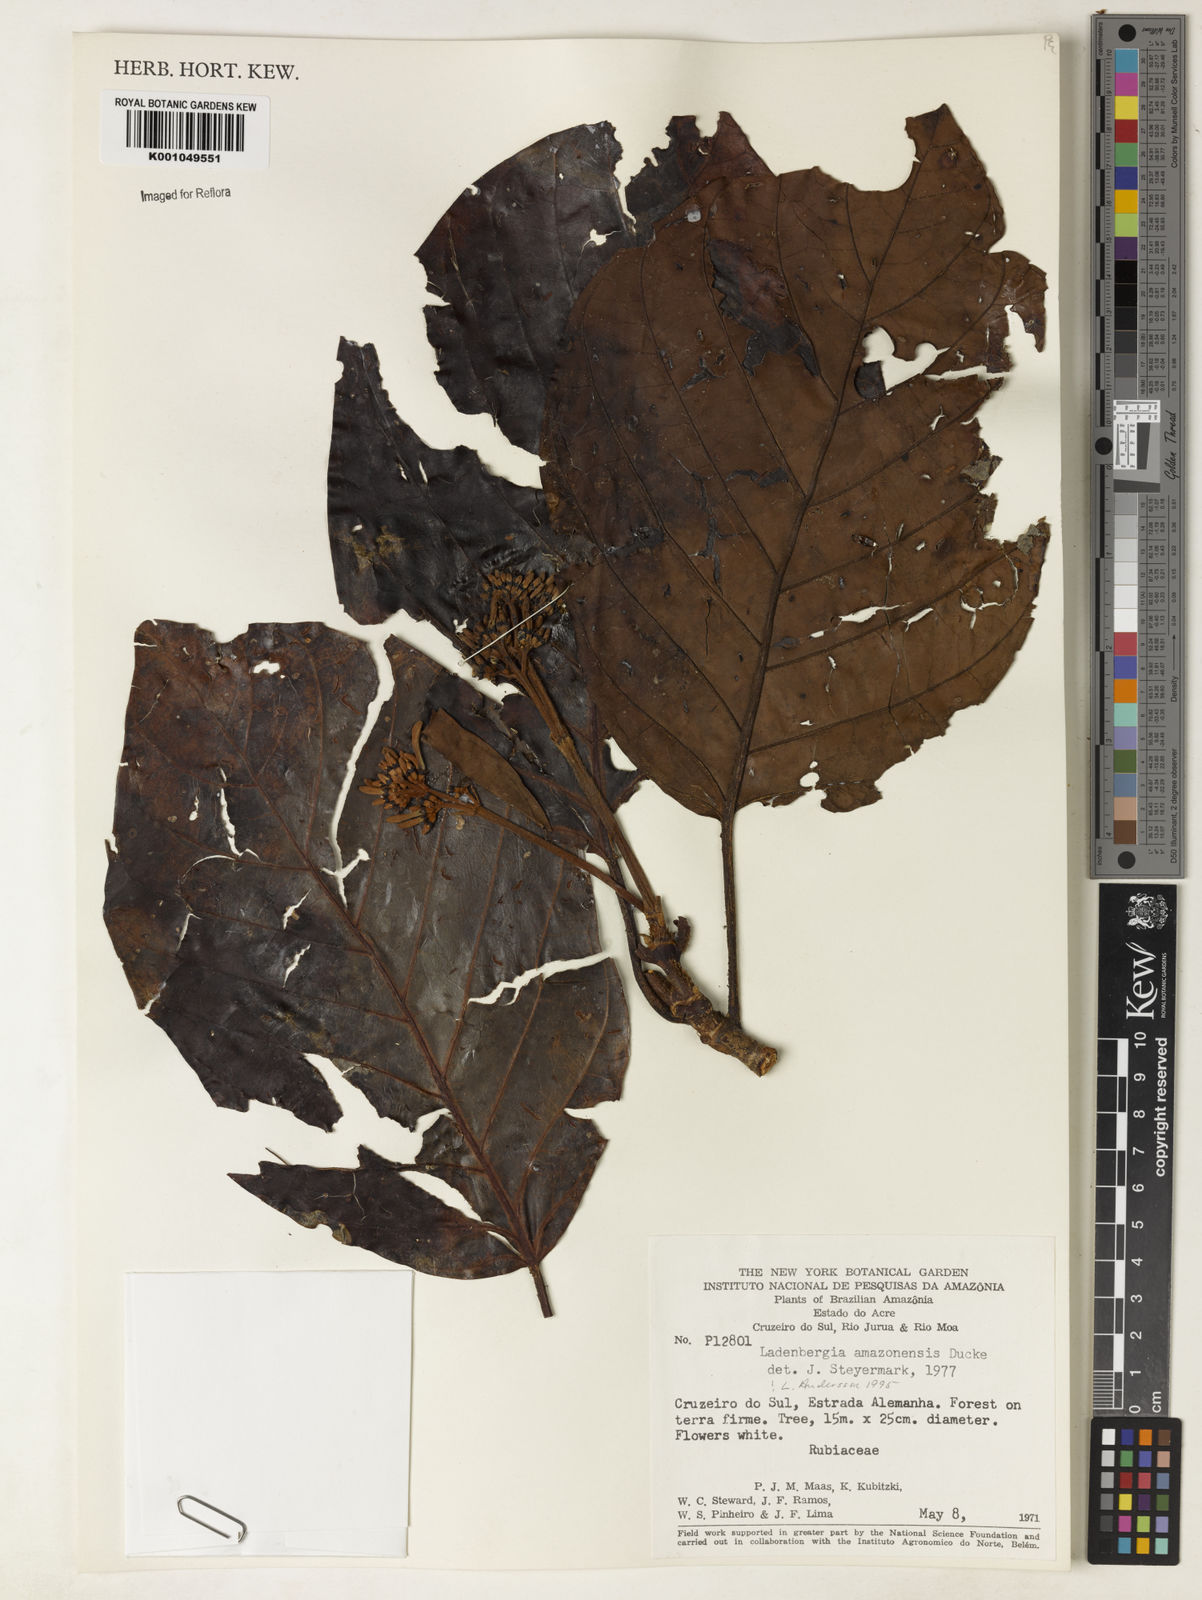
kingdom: Plantae
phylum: Tracheophyta
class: Magnoliopsida
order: Gentianales
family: Rubiaceae
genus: Ladenbergia
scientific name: Ladenbergia amazonensis
